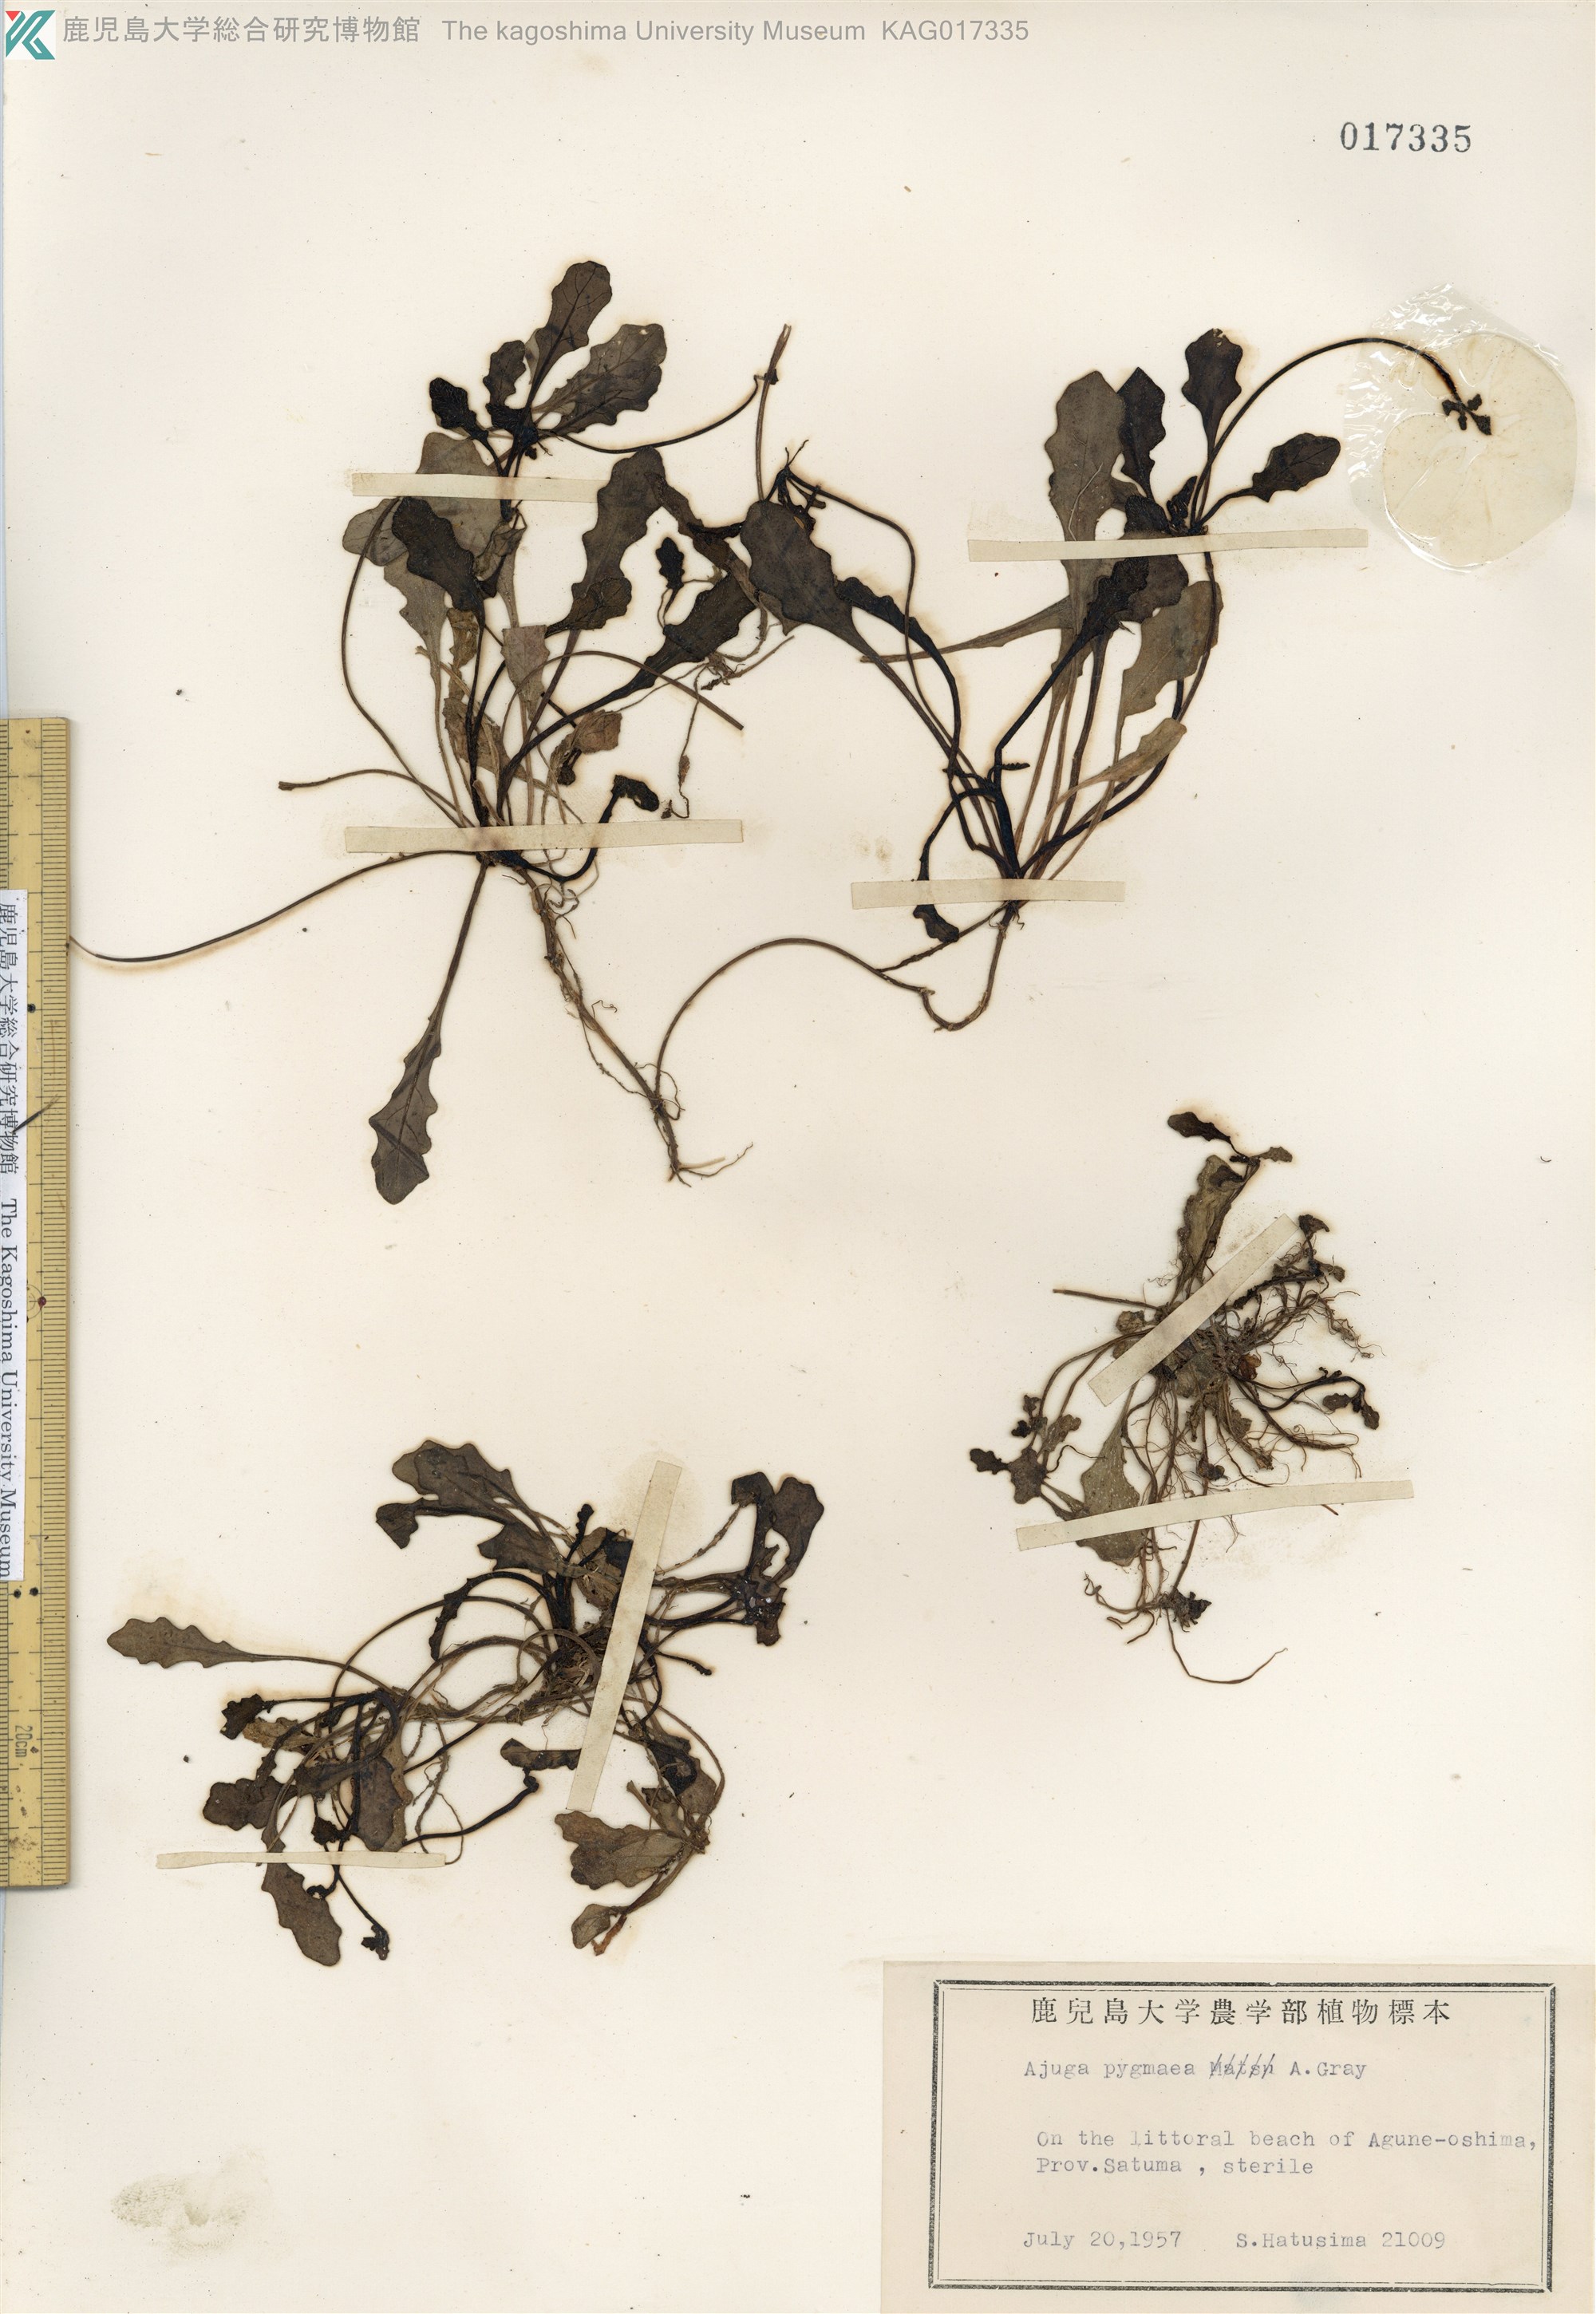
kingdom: Plantae
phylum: Tracheophyta
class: Magnoliopsida
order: Lamiales
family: Lamiaceae
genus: Ajuga
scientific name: Ajuga pygmaea
